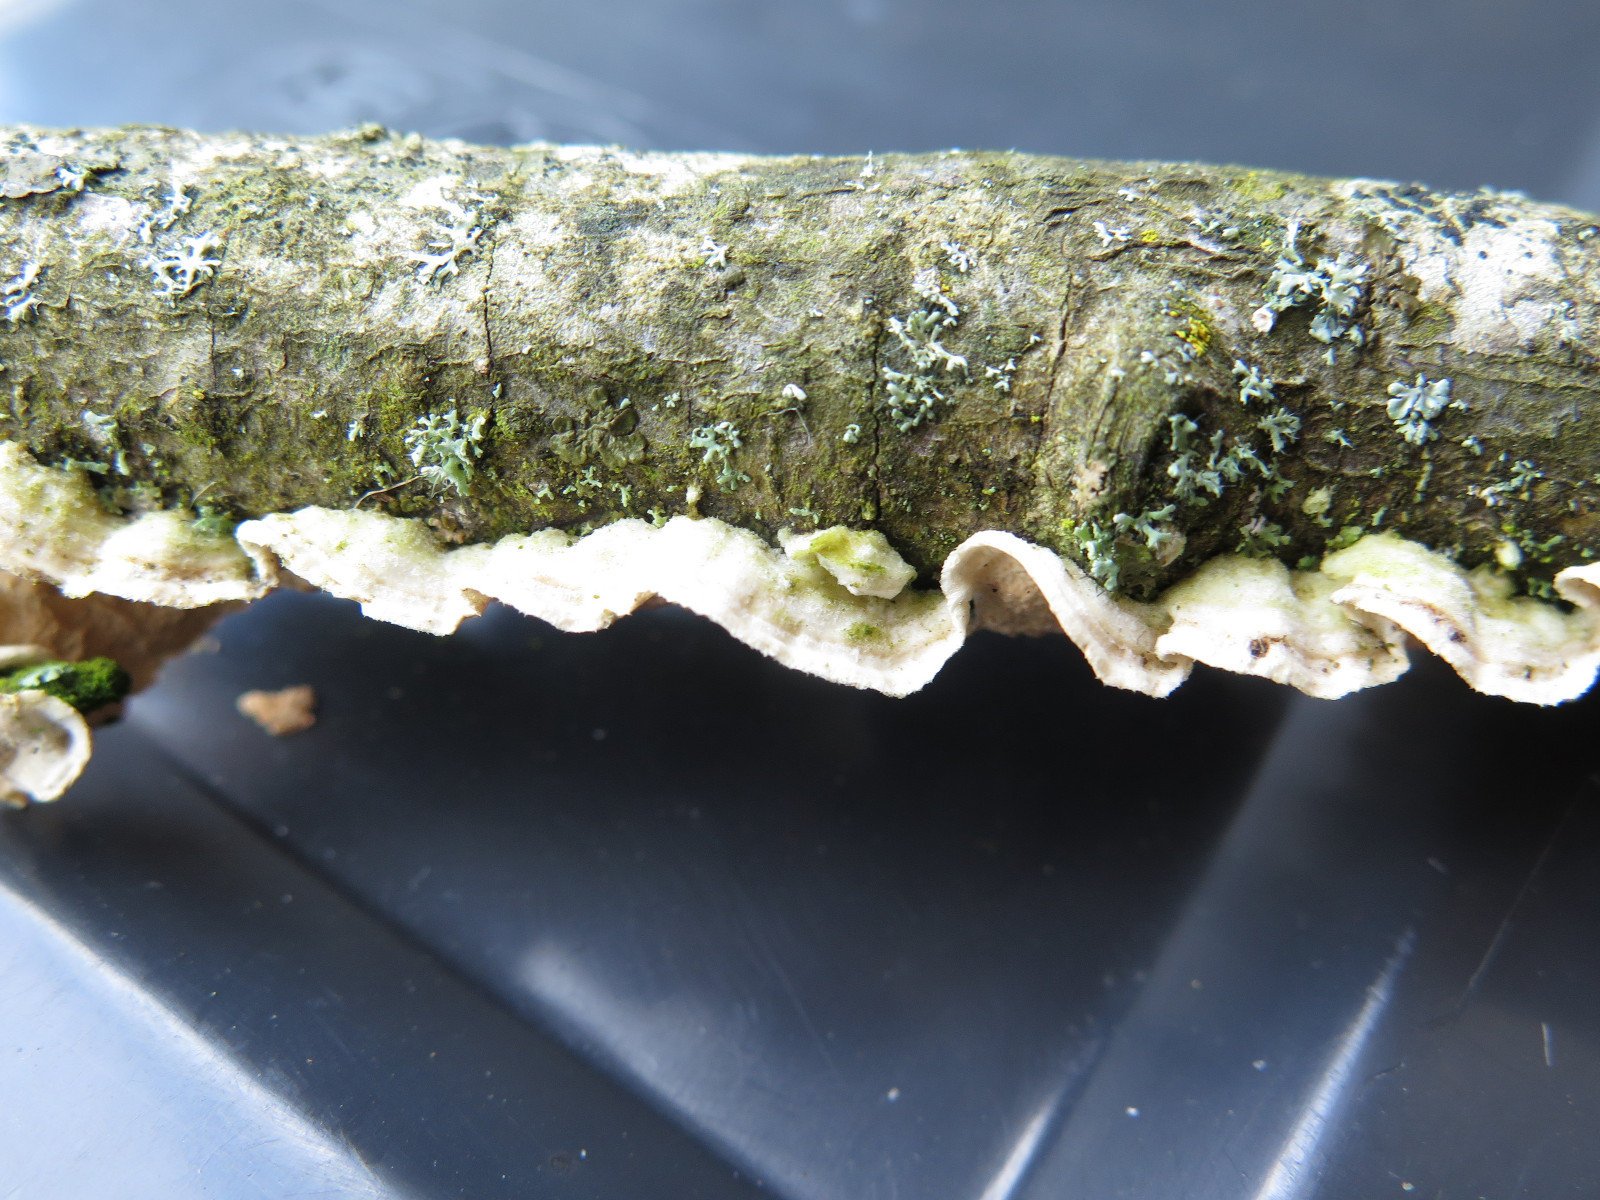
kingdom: Fungi
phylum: Basidiomycota
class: Agaricomycetes
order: Polyporales
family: Irpicaceae
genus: Byssomerulius
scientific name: Byssomerulius corium
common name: læder-åresvamp
